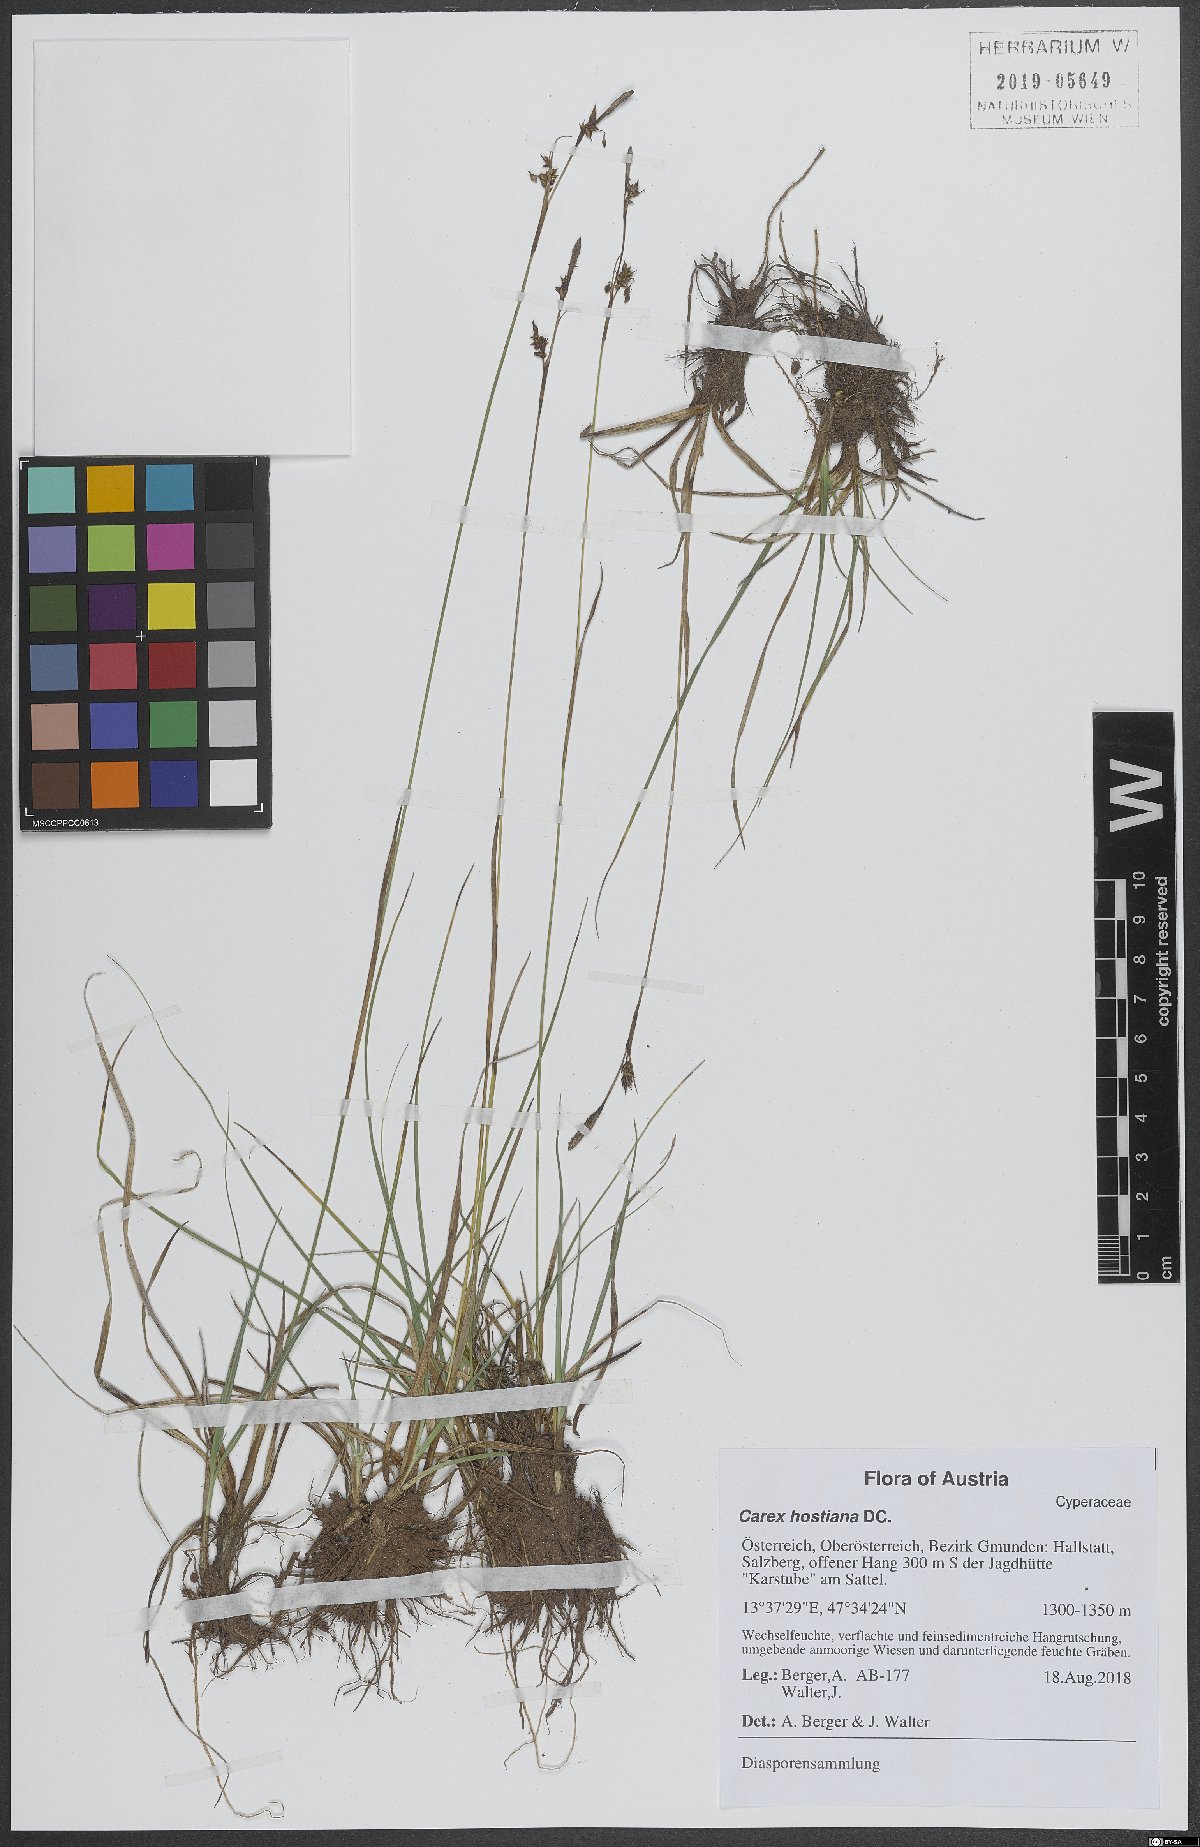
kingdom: Plantae
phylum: Tracheophyta
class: Liliopsida
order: Poales
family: Cyperaceae
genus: Carex
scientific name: Carex hostiana
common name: Tawny sedge
